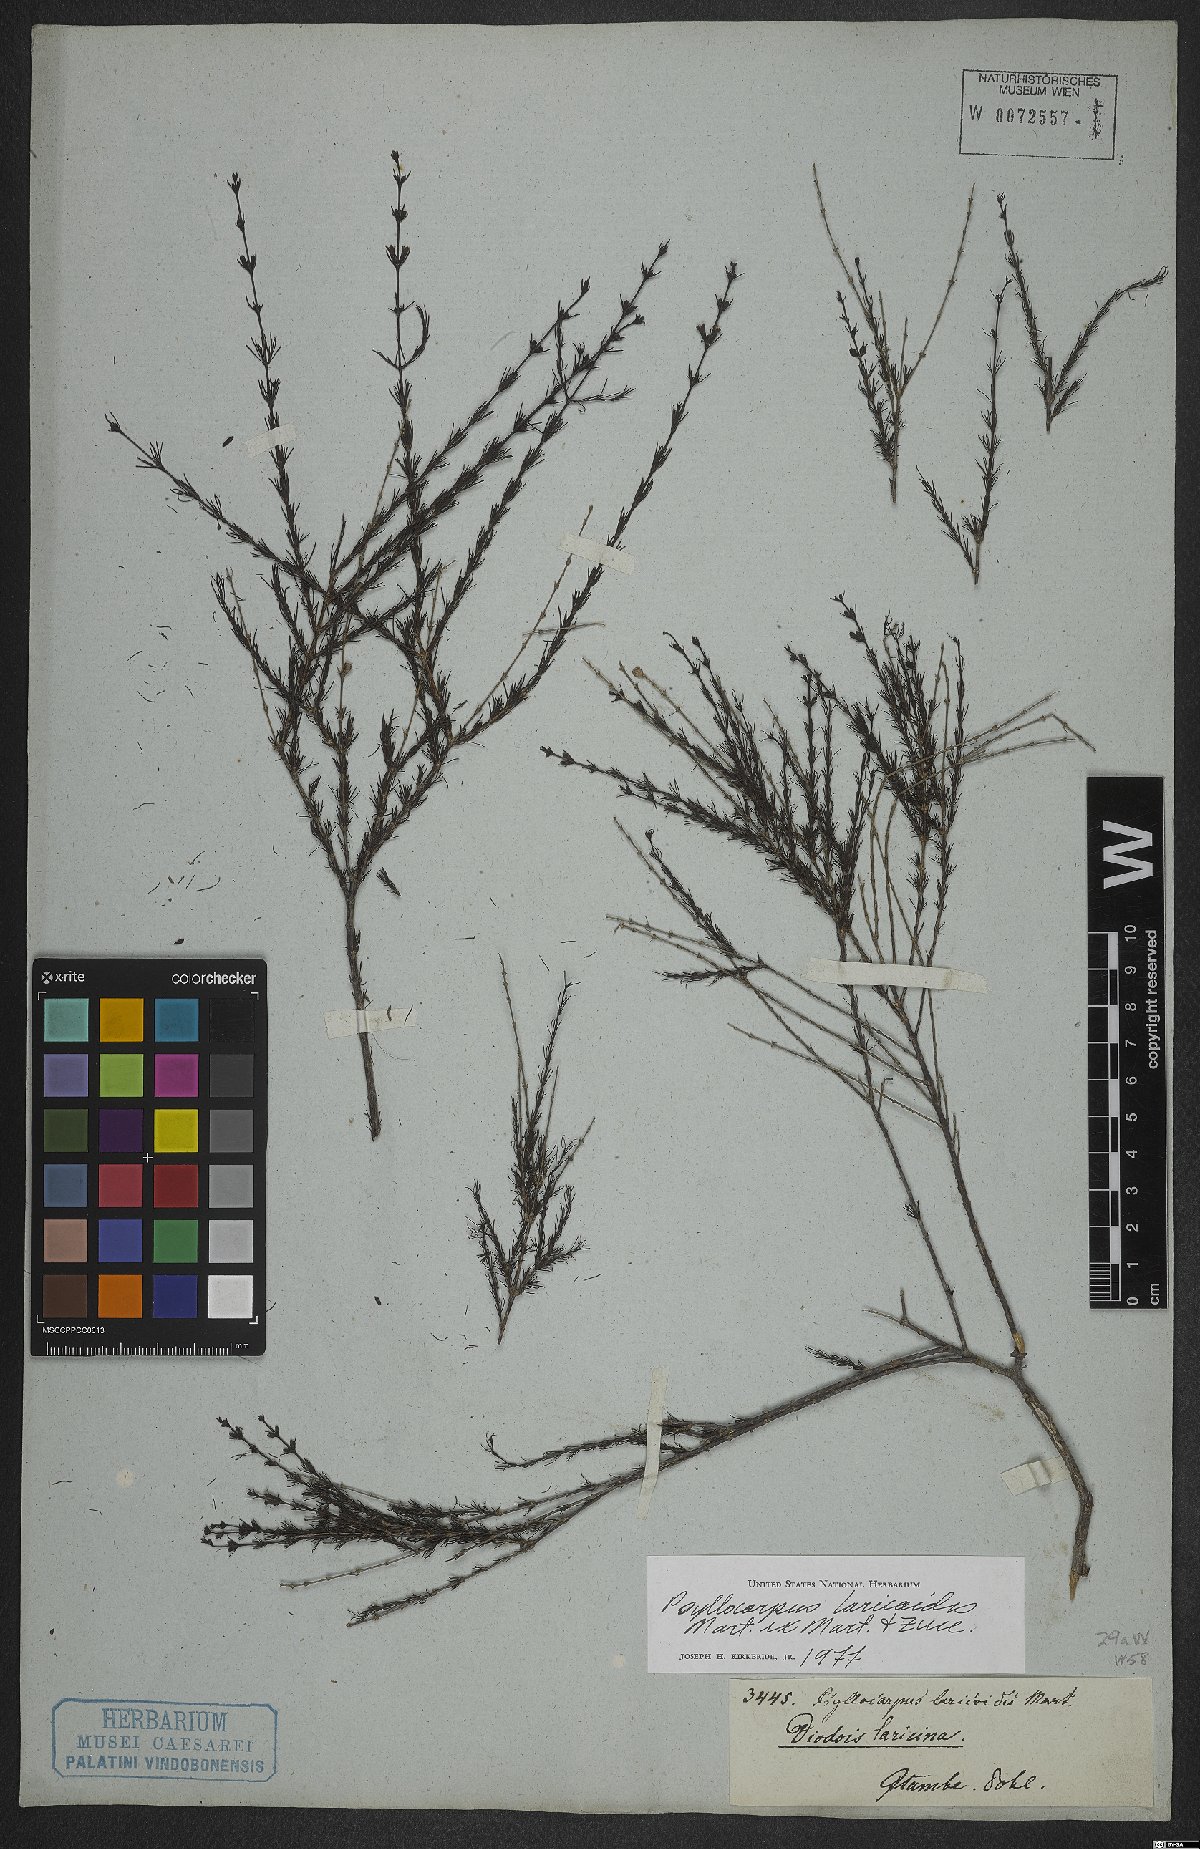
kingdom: Plantae
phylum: Tracheophyta
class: Magnoliopsida
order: Gentianales
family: Rubiaceae
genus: Psyllocarpus
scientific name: Psyllocarpus laricoides
